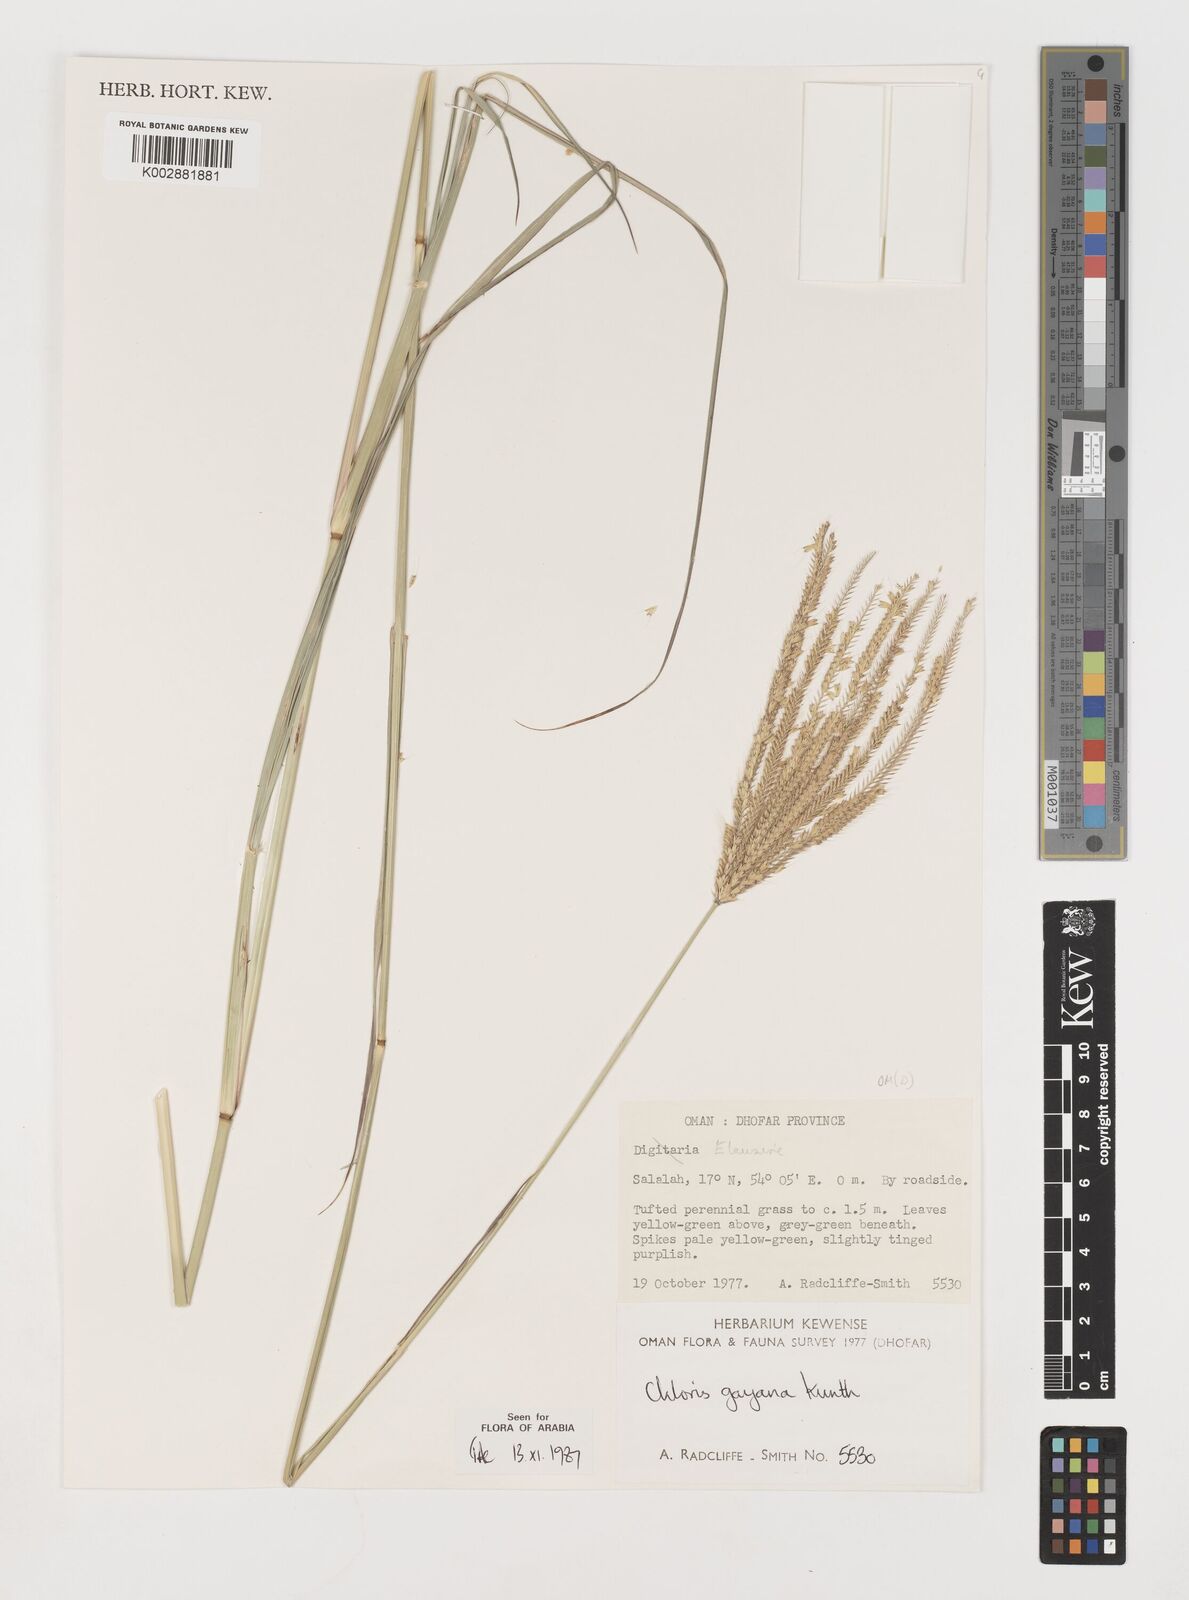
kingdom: Plantae
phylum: Tracheophyta
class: Liliopsida
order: Poales
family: Poaceae
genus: Chloris
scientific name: Chloris gayana
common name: Rhodes grass
